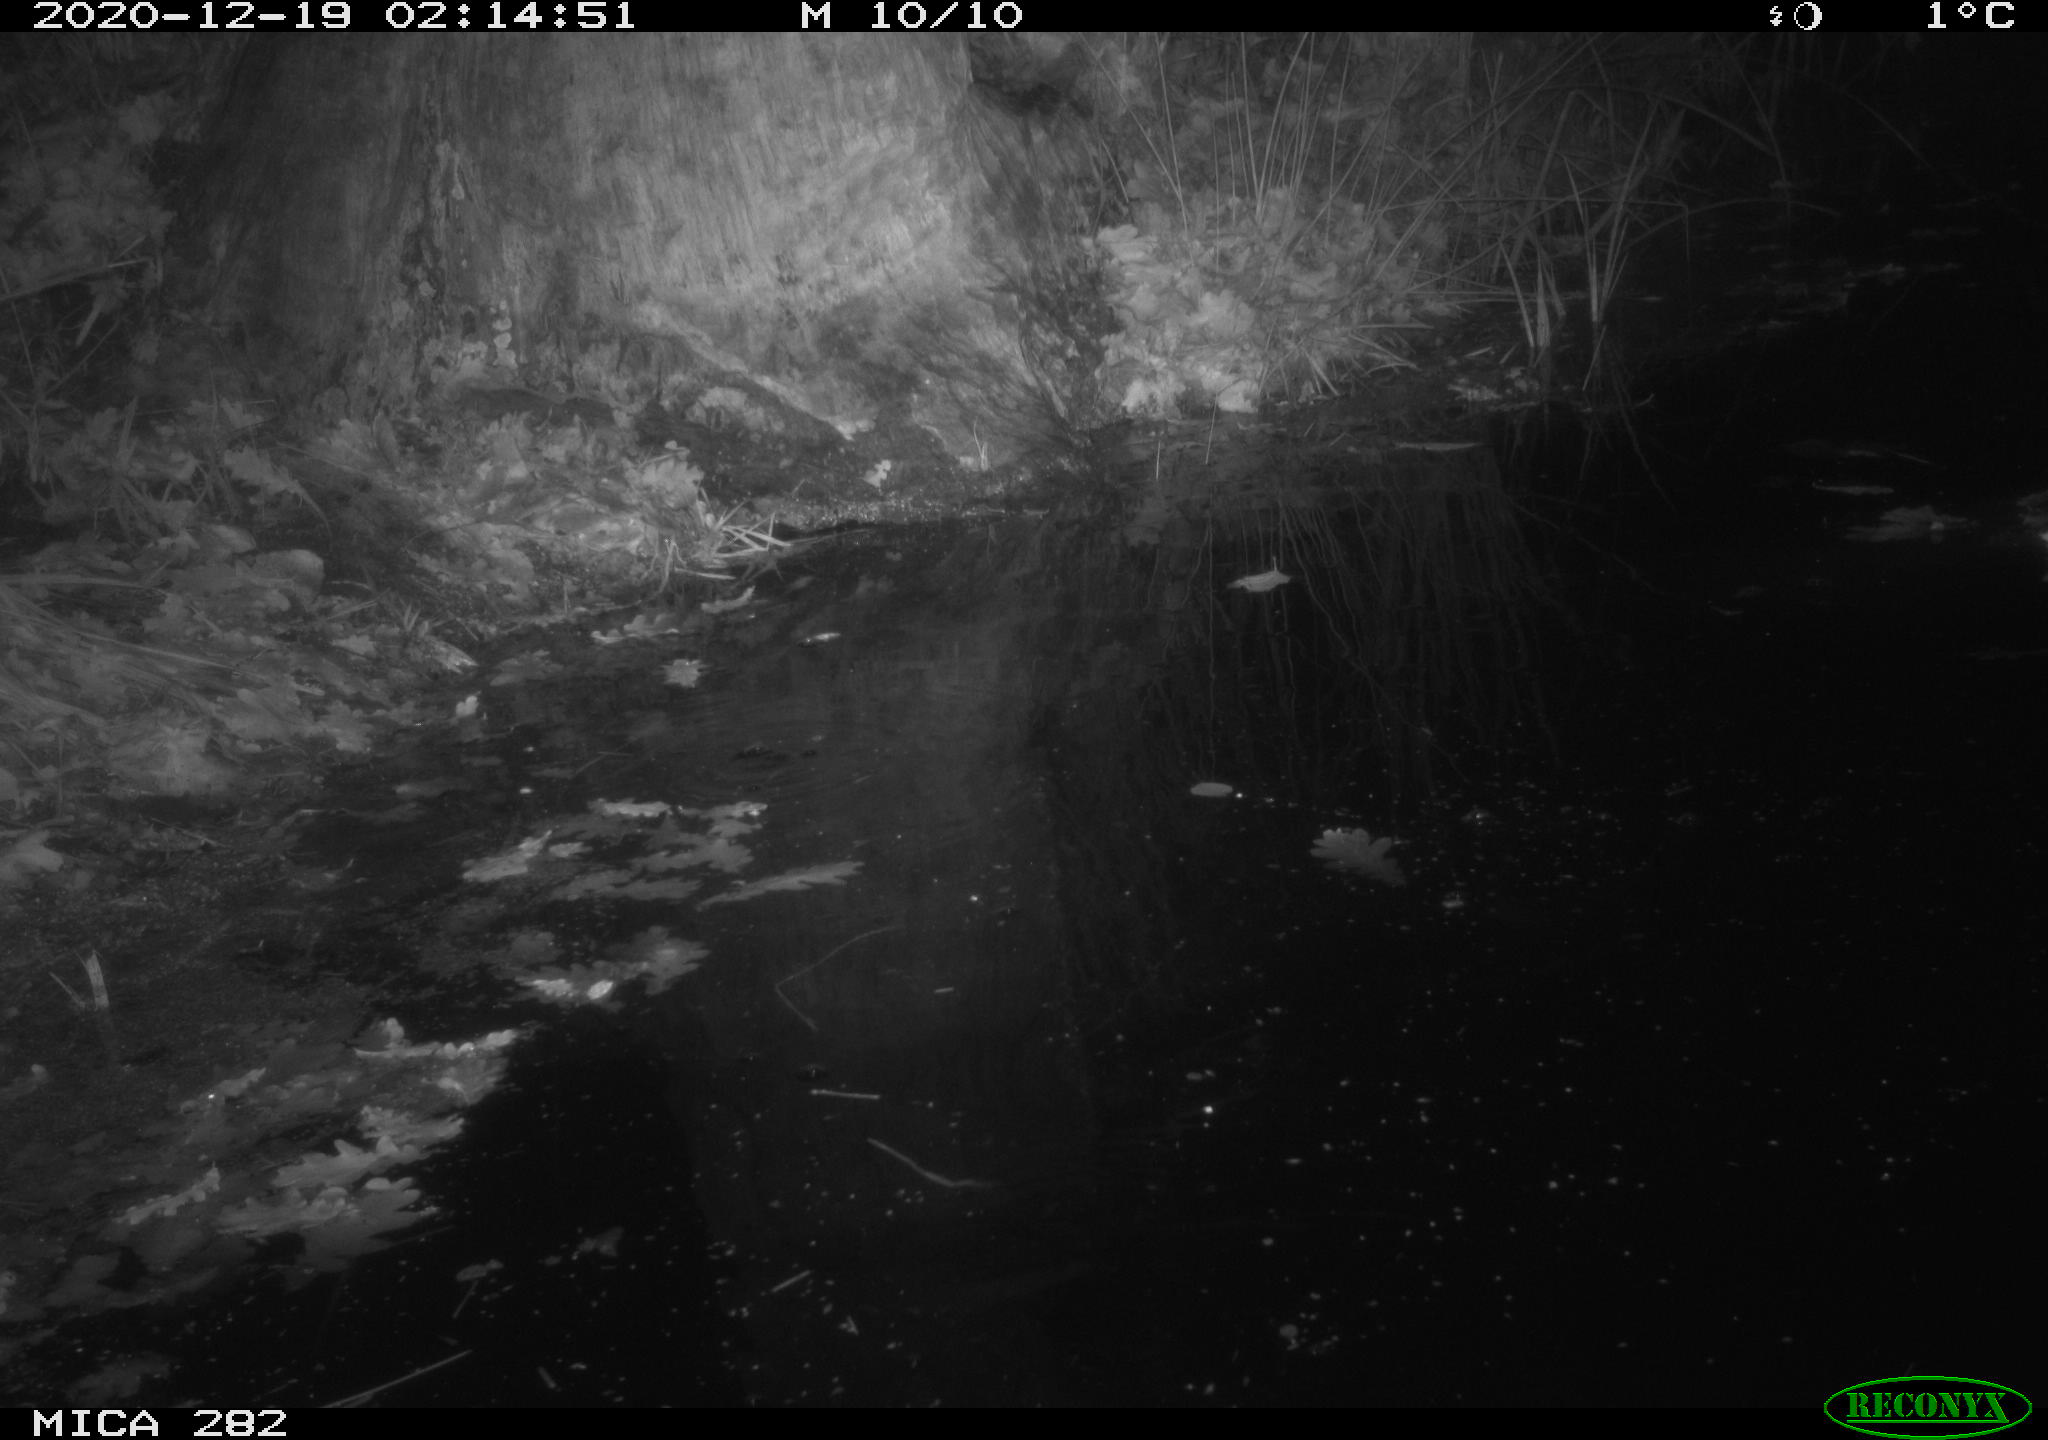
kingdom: Animalia
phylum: Chordata
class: Mammalia
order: Rodentia
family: Castoridae
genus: Castor
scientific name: Castor fiber
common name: Eurasian beaver
